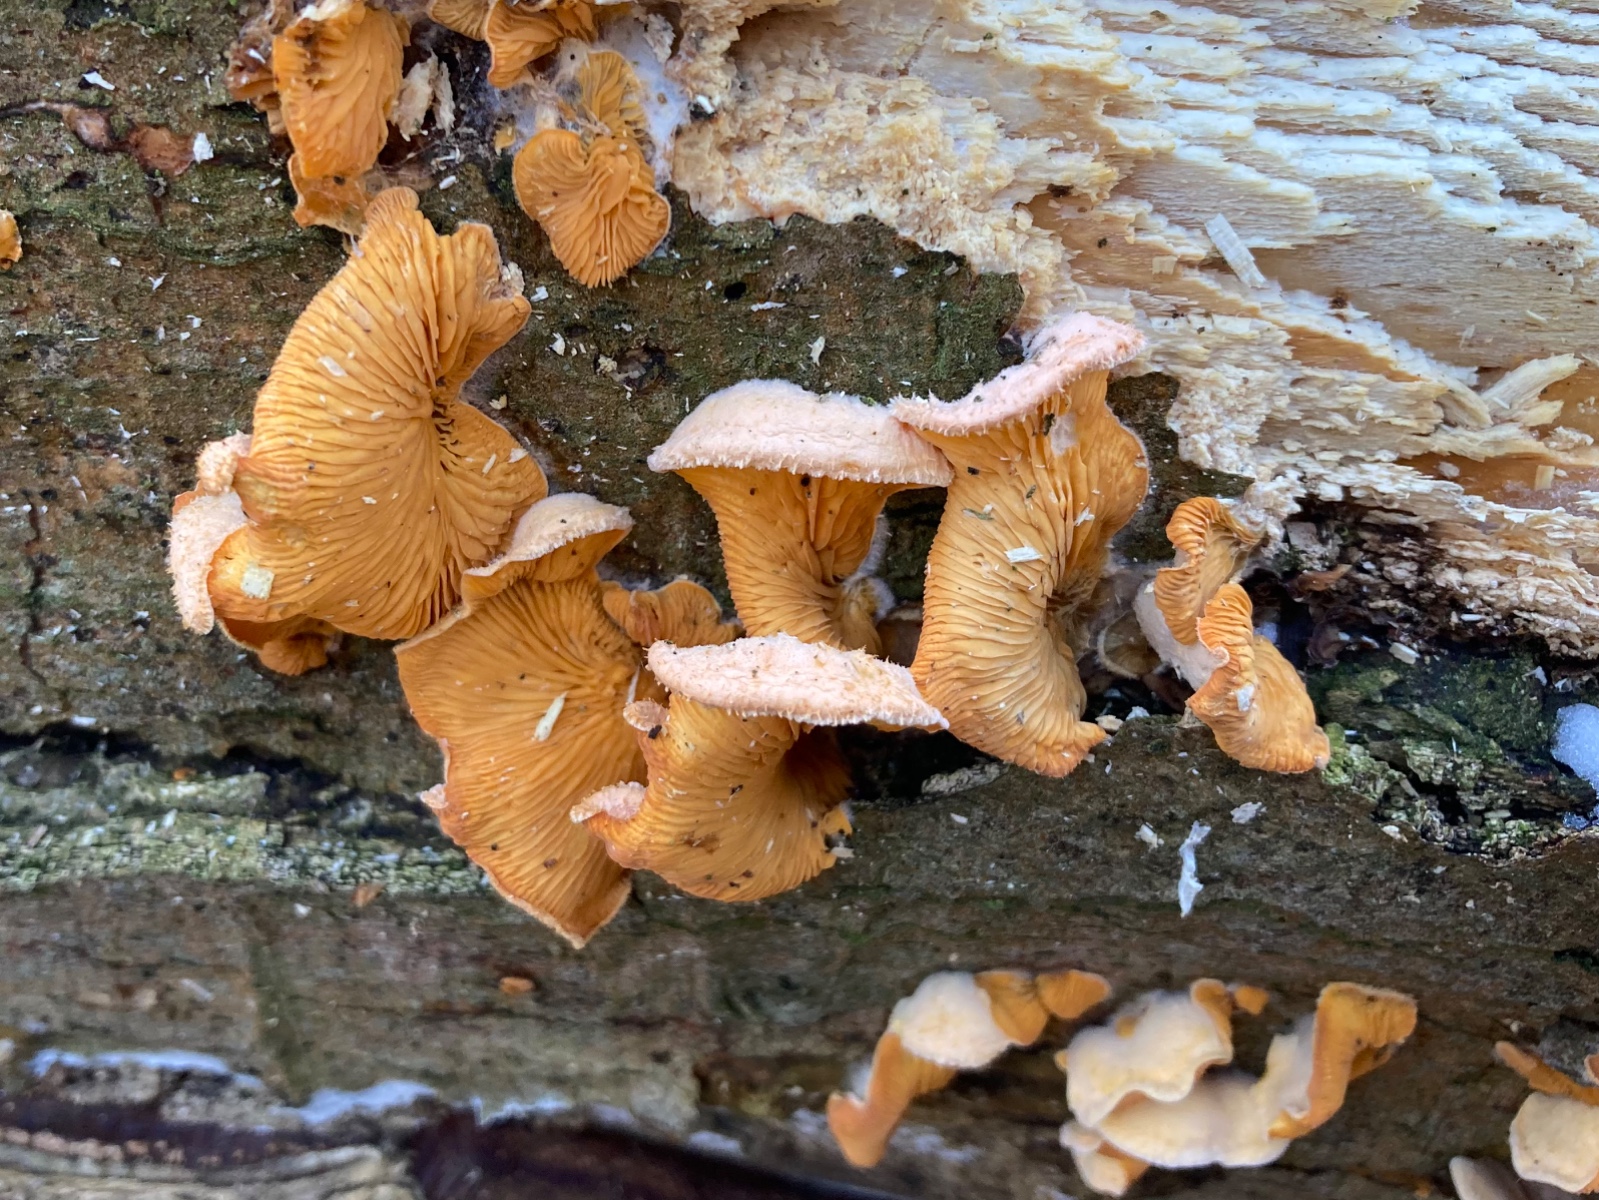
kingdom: Fungi
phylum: Basidiomycota
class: Agaricomycetes
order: Agaricales
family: Phyllotopsidaceae
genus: Phyllotopsis
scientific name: Phyllotopsis nidulans
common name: okkerblad
